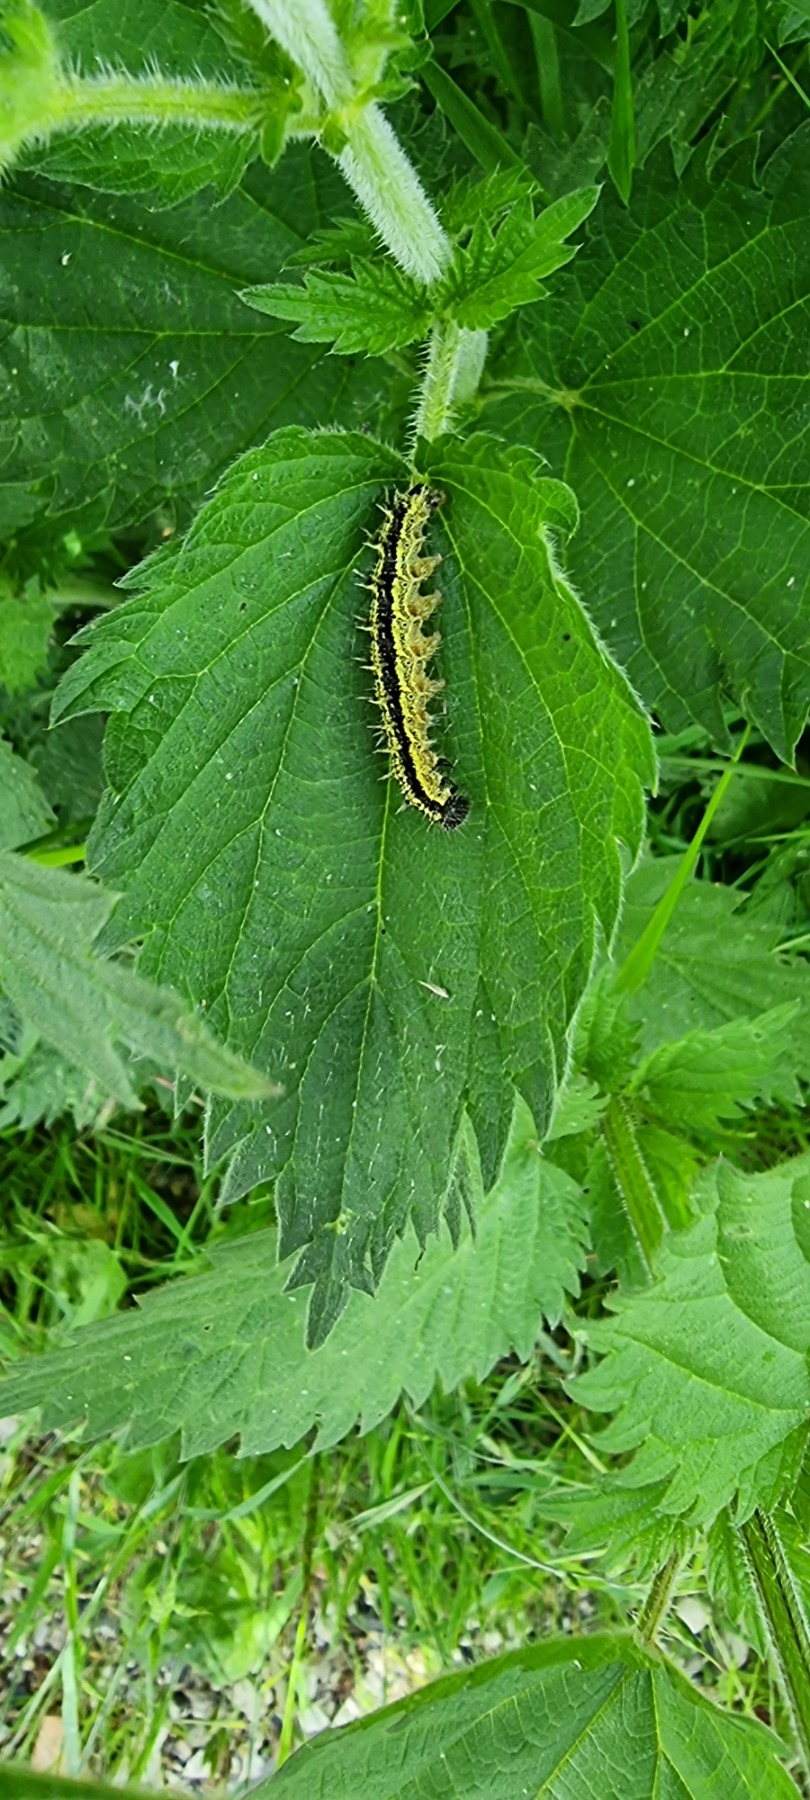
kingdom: Animalia
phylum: Arthropoda
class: Insecta
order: Lepidoptera
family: Nymphalidae
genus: Aglais
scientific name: Aglais urticae
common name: Nældens takvinge
